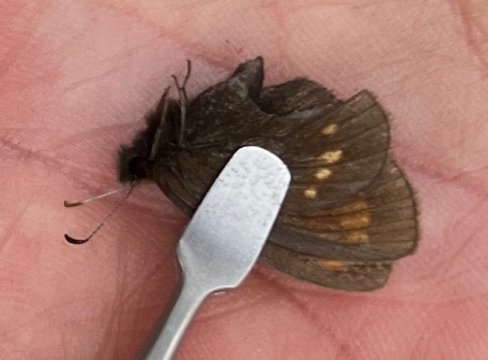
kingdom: Animalia
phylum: Arthropoda
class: Insecta
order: Lepidoptera
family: Nymphalidae
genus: Erebia
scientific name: Erebia pawloskii
